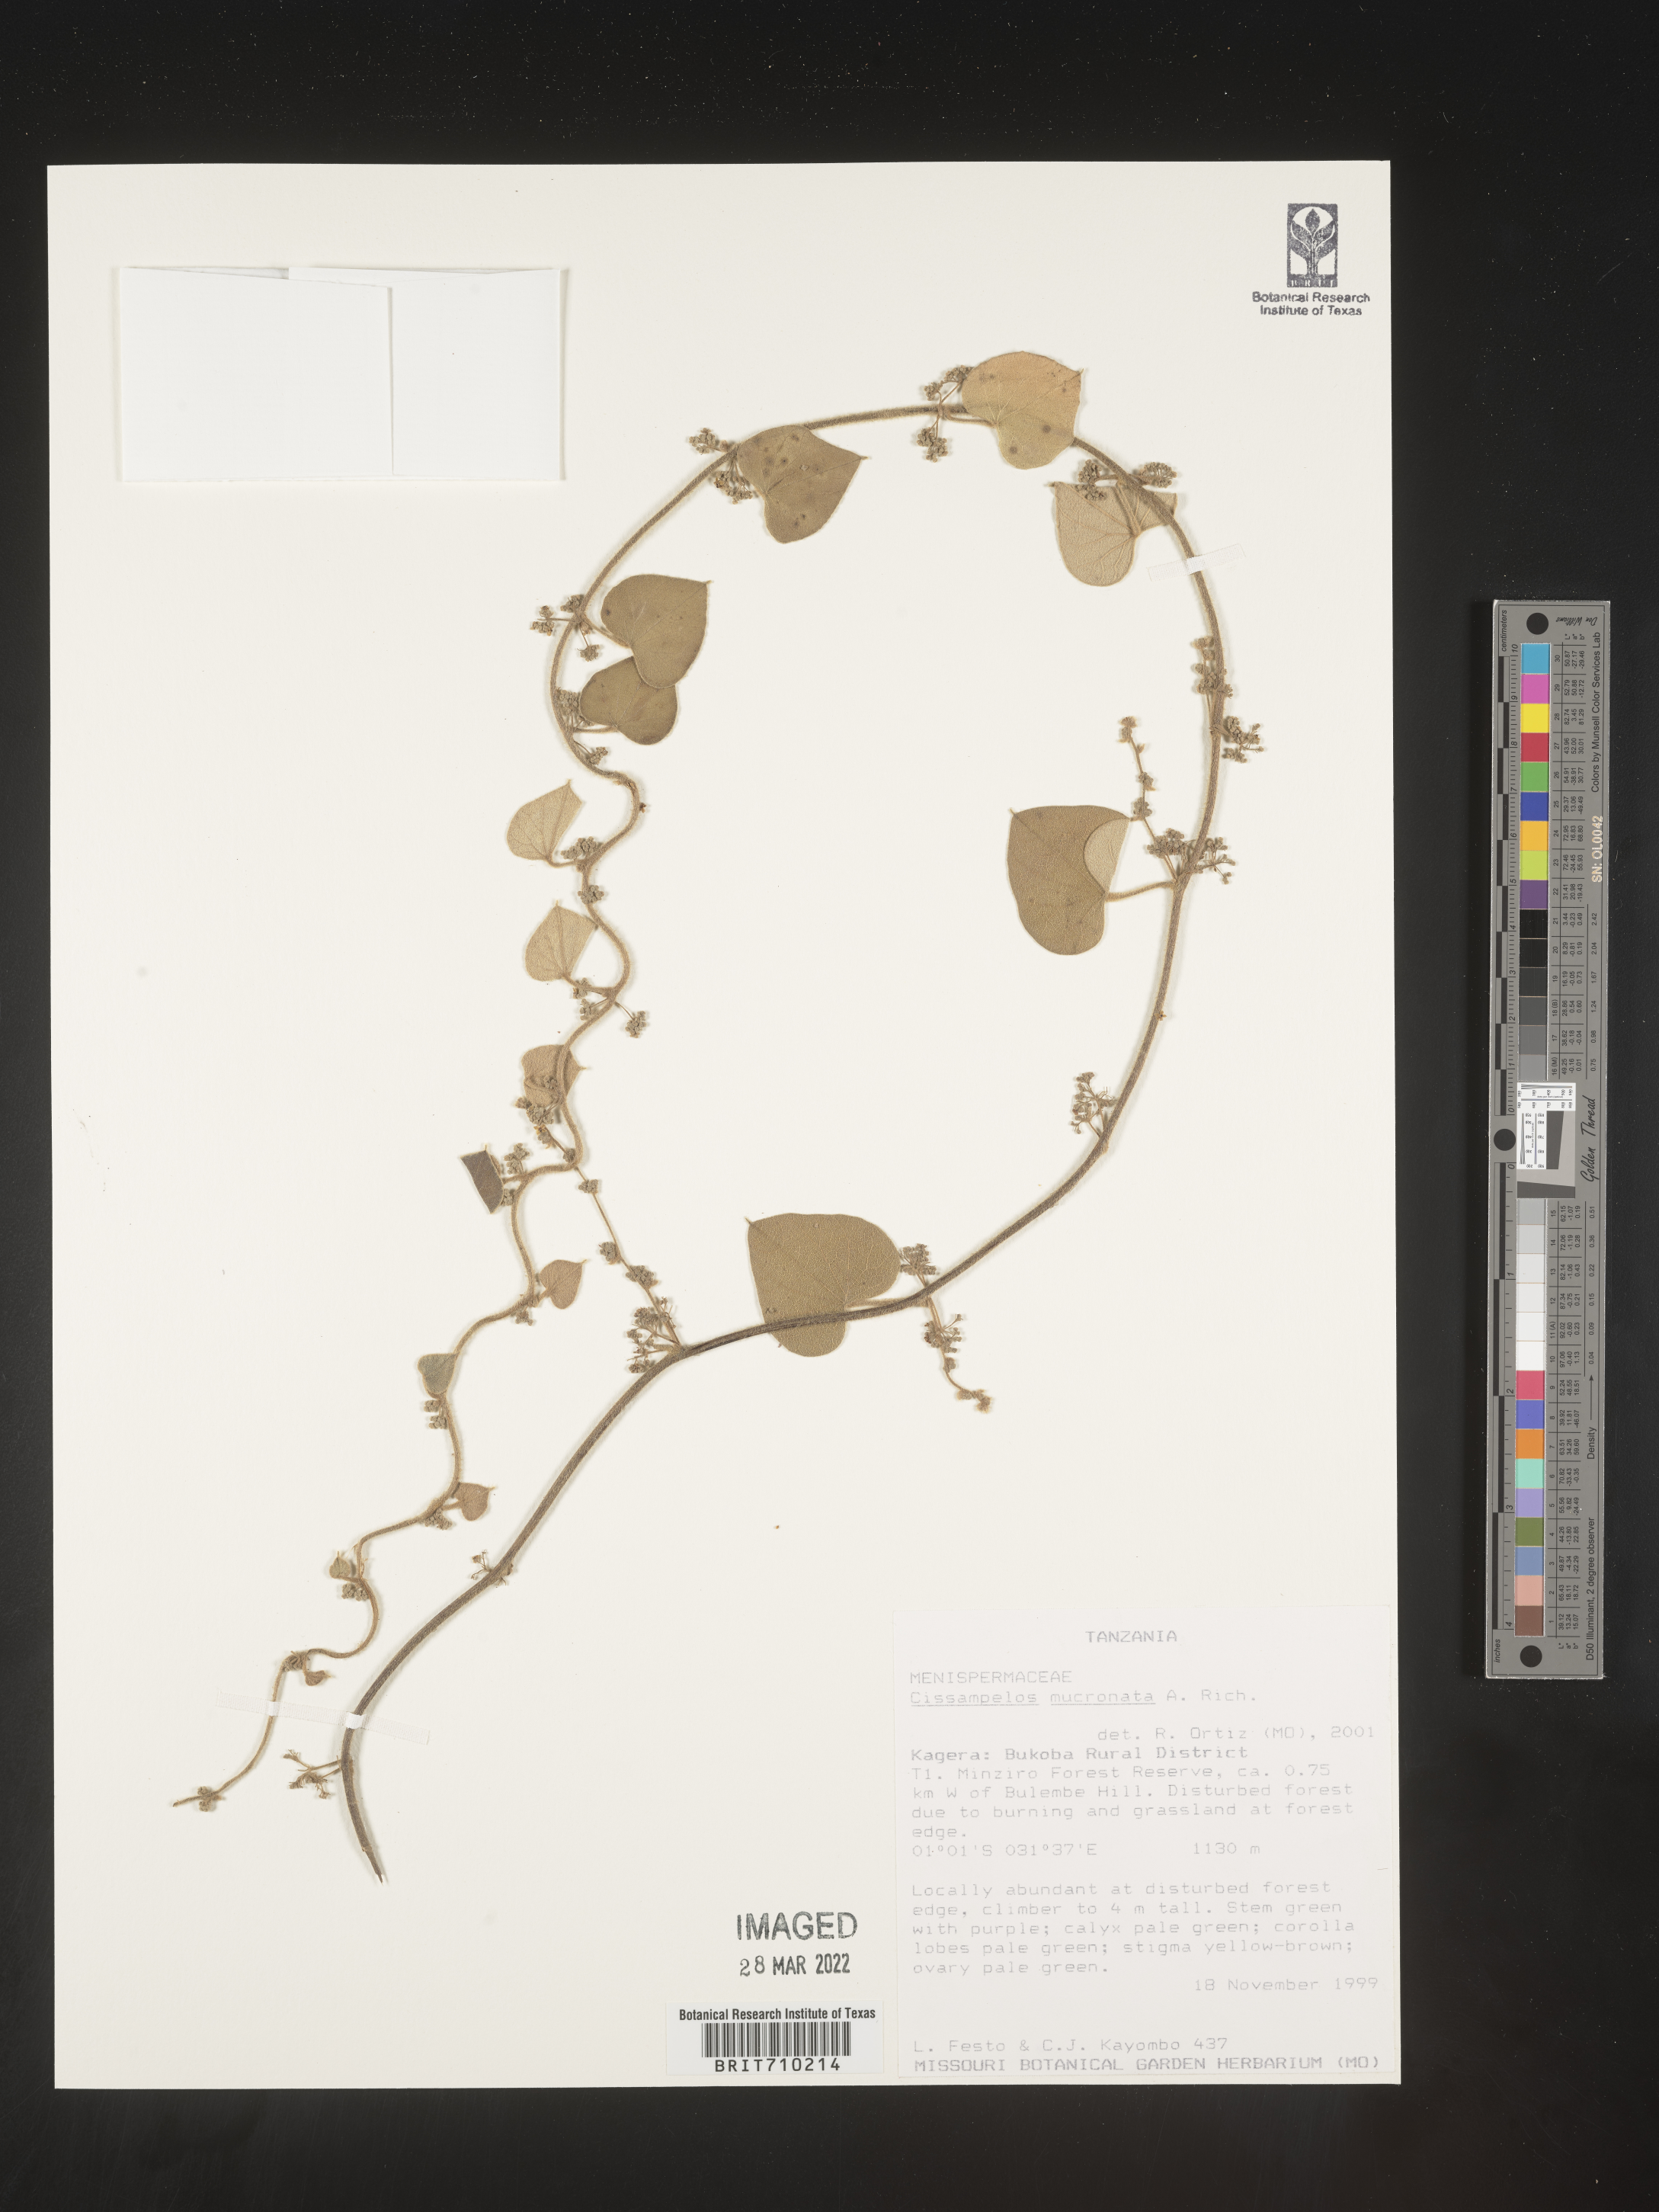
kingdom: Plantae
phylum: Tracheophyta
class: Magnoliopsida
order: Ranunculales
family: Menispermaceae
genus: Cissampelos
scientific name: Cissampelos
